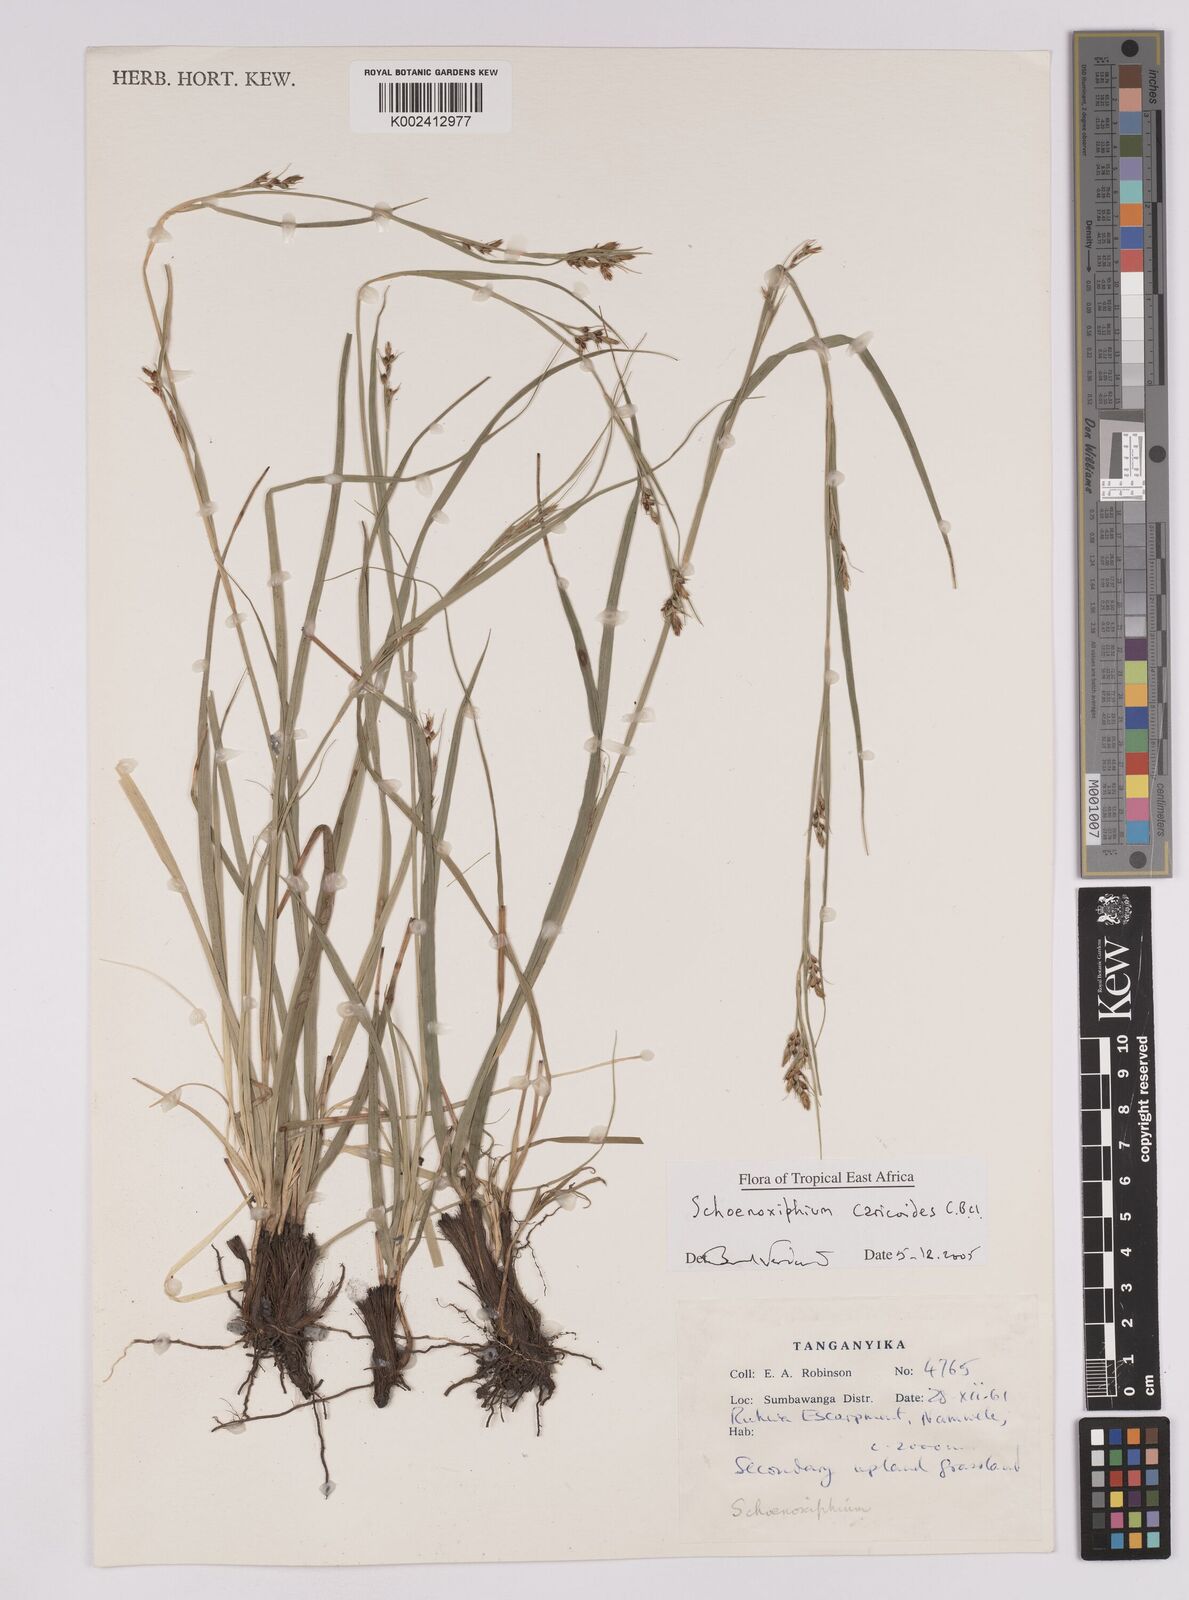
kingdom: Plantae
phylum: Tracheophyta
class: Liliopsida
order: Poales
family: Cyperaceae
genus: Carex
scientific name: Carex spartea
